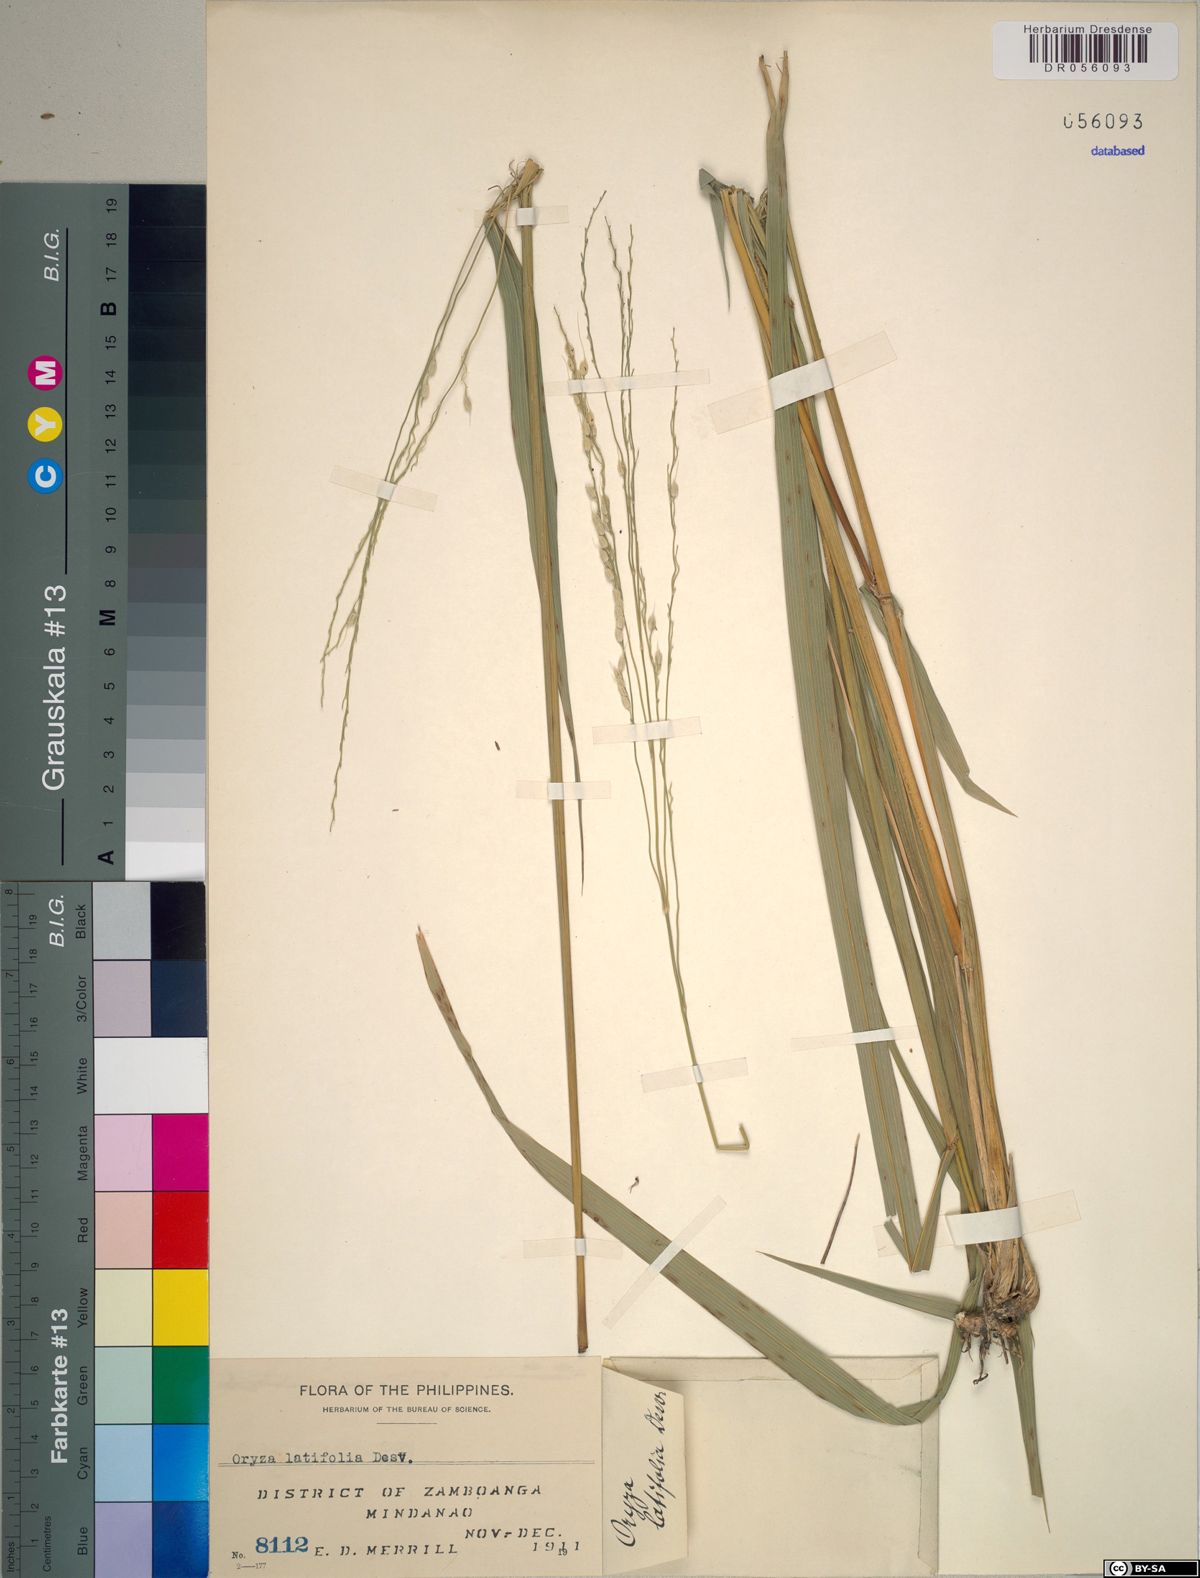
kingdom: Plantae
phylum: Tracheophyta
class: Liliopsida
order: Poales
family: Poaceae
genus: Oryza
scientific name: Oryza latifolia
